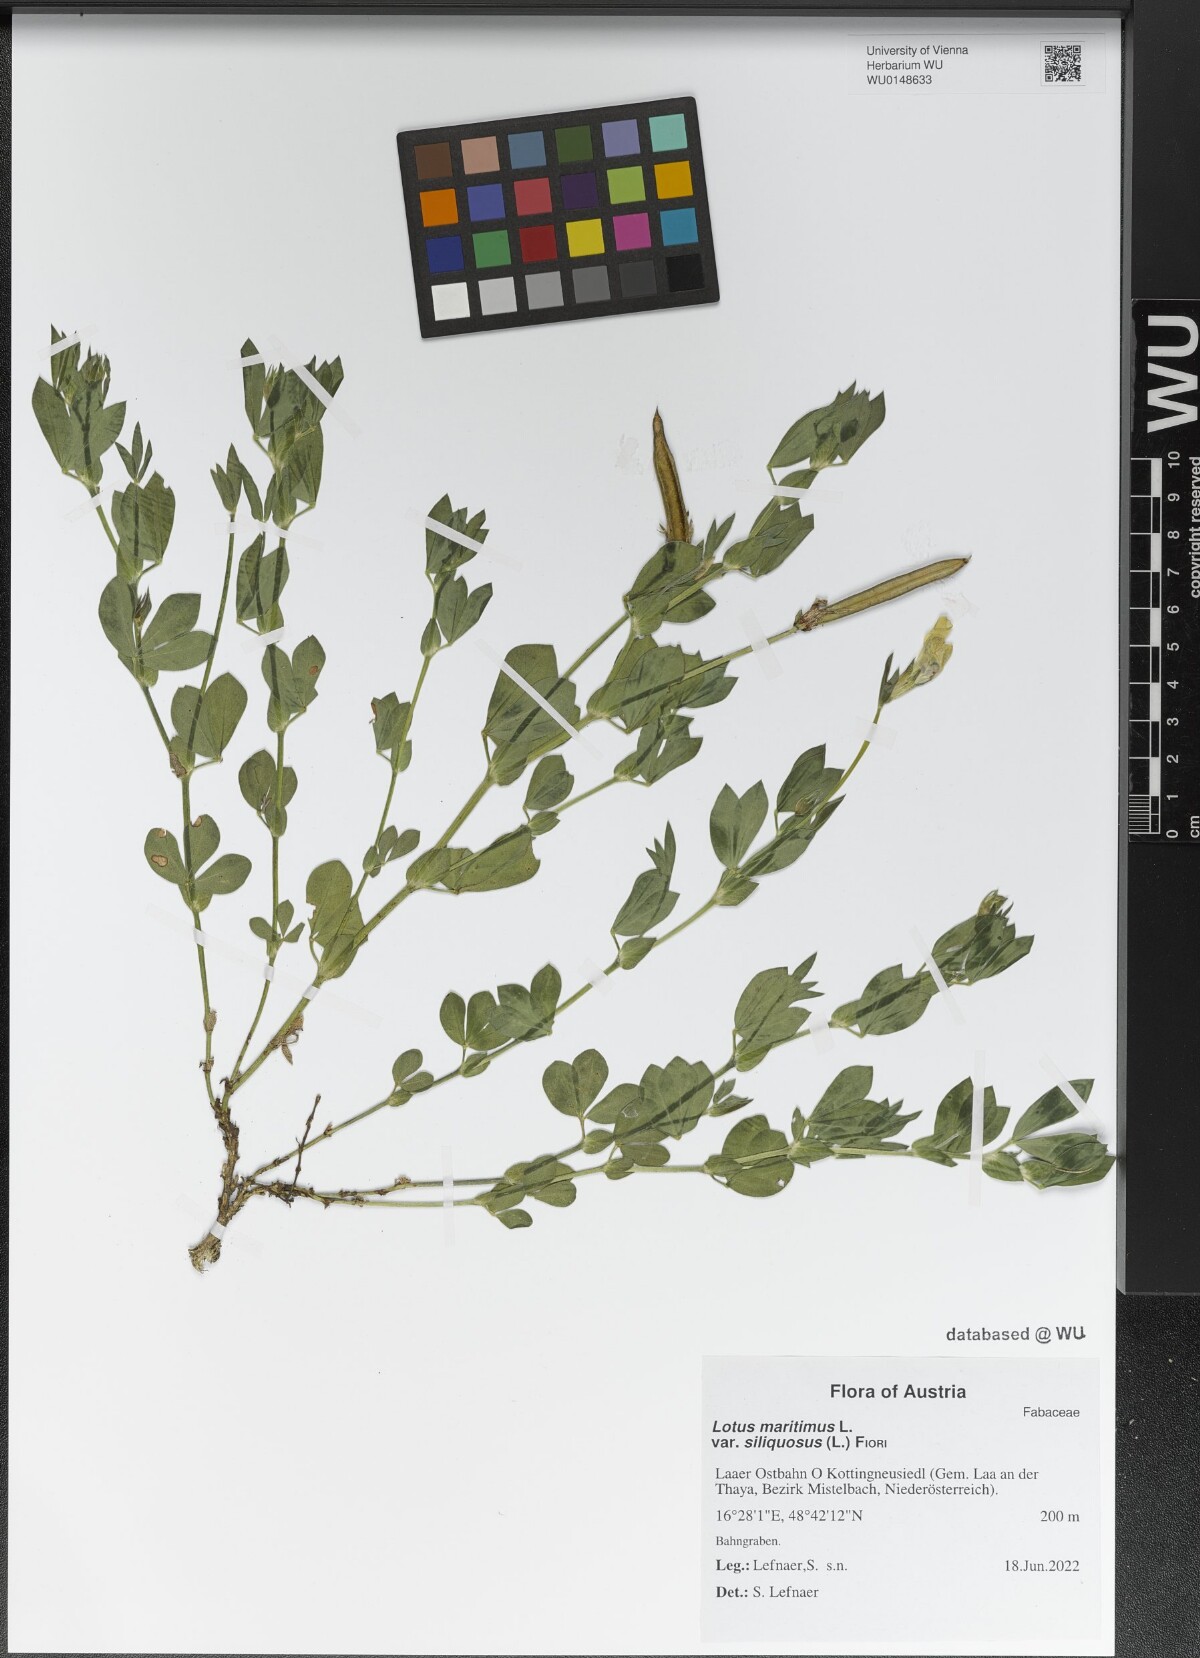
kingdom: Plantae
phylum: Tracheophyta
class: Magnoliopsida
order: Fabales
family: Fabaceae
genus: Lathyrus
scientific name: Lathyrus inconspicuus
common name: Inconspicuous pea
